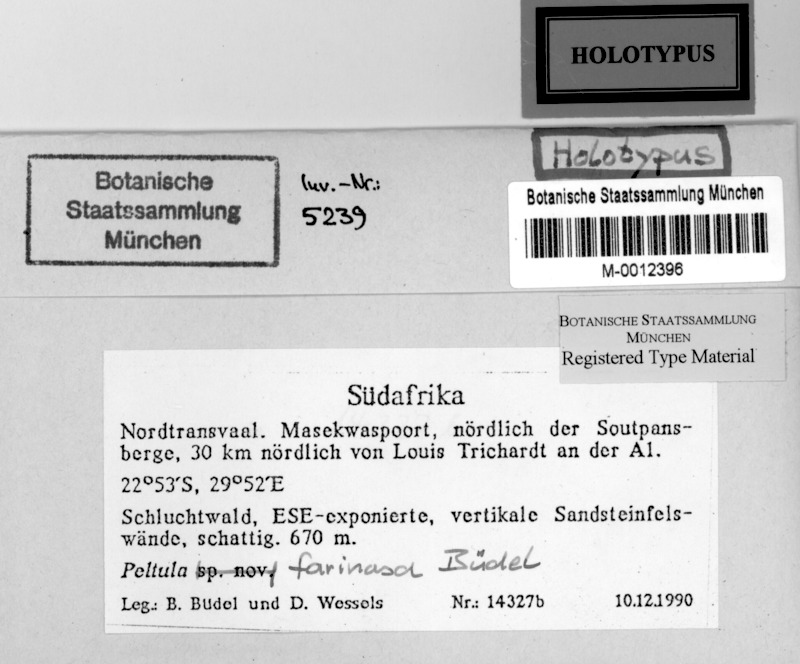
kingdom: Fungi
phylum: Ascomycota
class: Lichinomycetes
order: Lichinales
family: Peltulaceae
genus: Peltula
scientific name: Peltula farinosa
